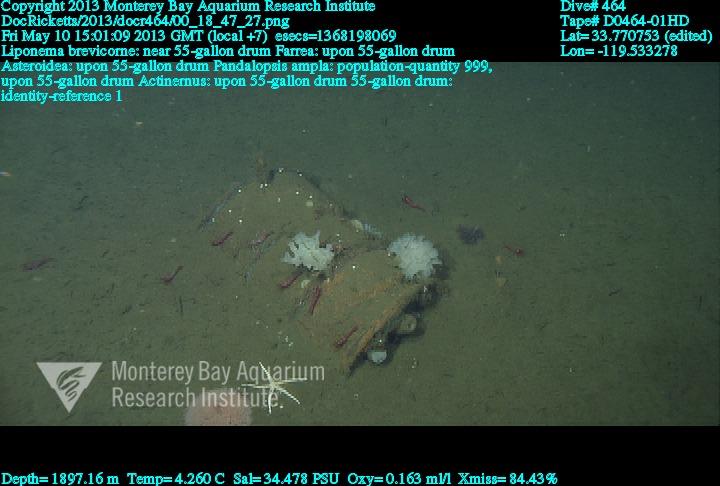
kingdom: Animalia
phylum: Porifera
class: Hexactinellida
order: Sceptrulophora
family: Farreidae
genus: Farrea
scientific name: Farrea
